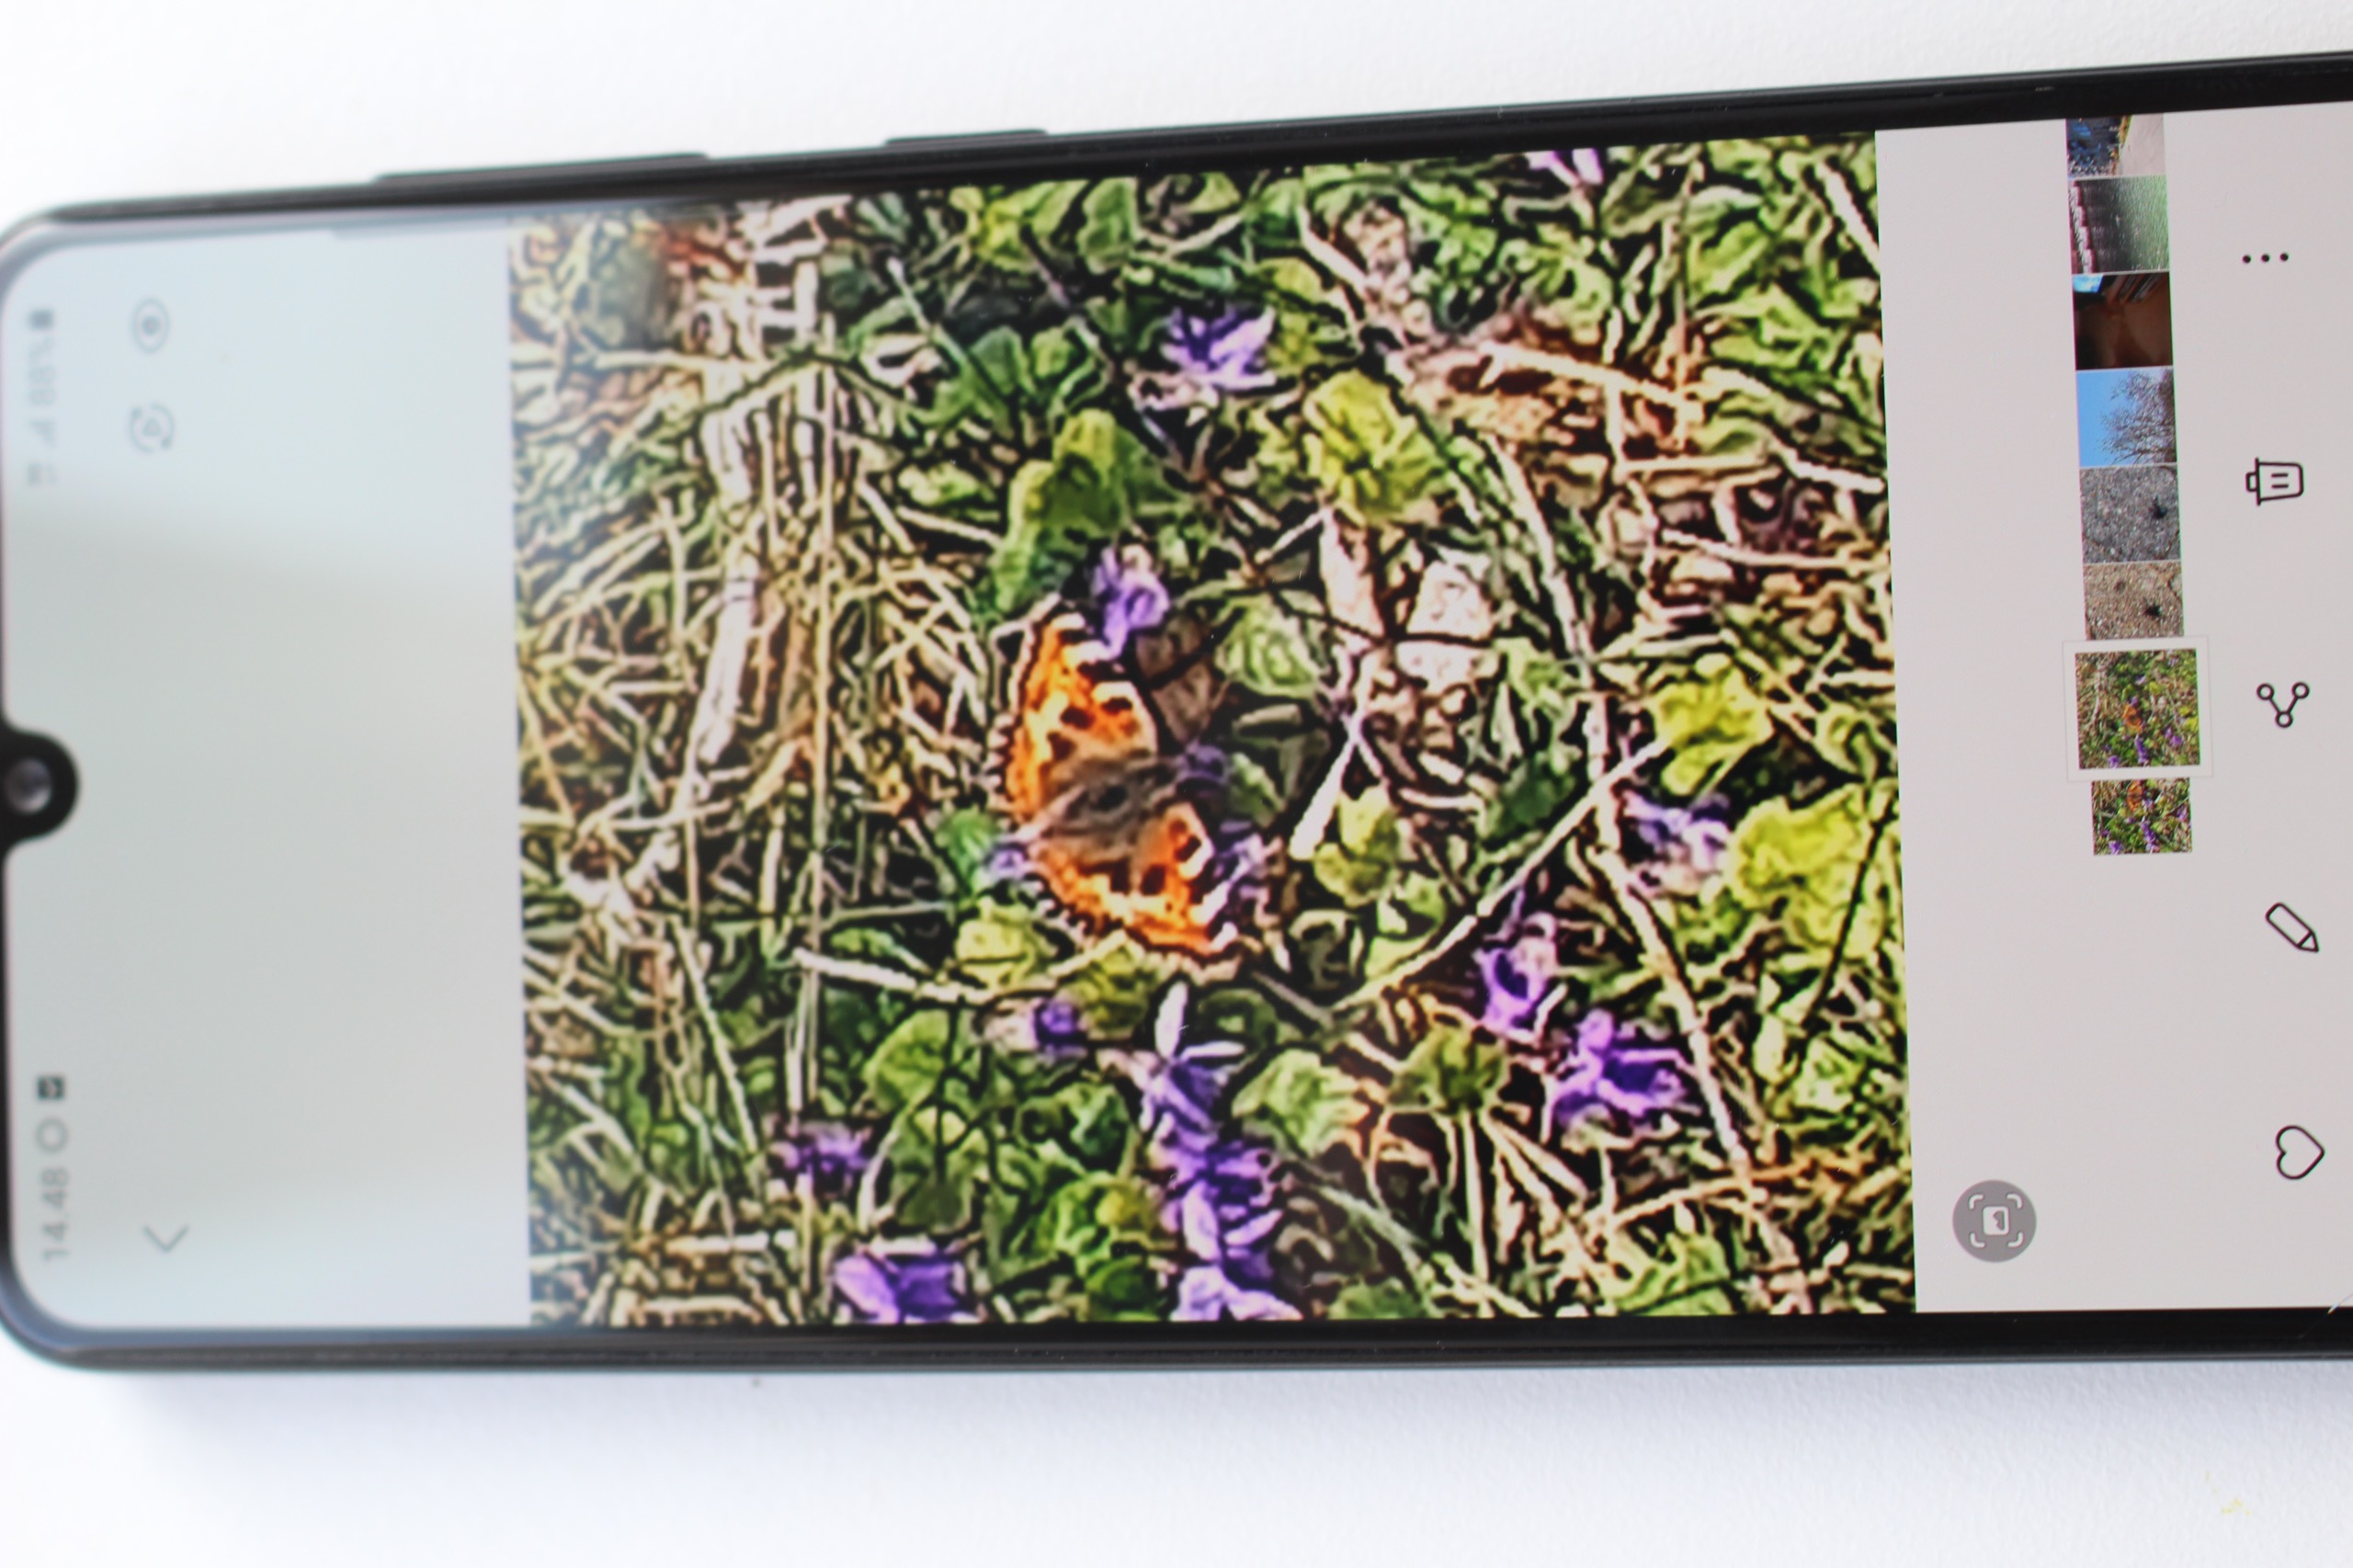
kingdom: Animalia
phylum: Arthropoda
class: Insecta
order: Lepidoptera
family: Nymphalidae
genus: Aglais
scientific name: Aglais urticae
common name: Nældens takvinge
